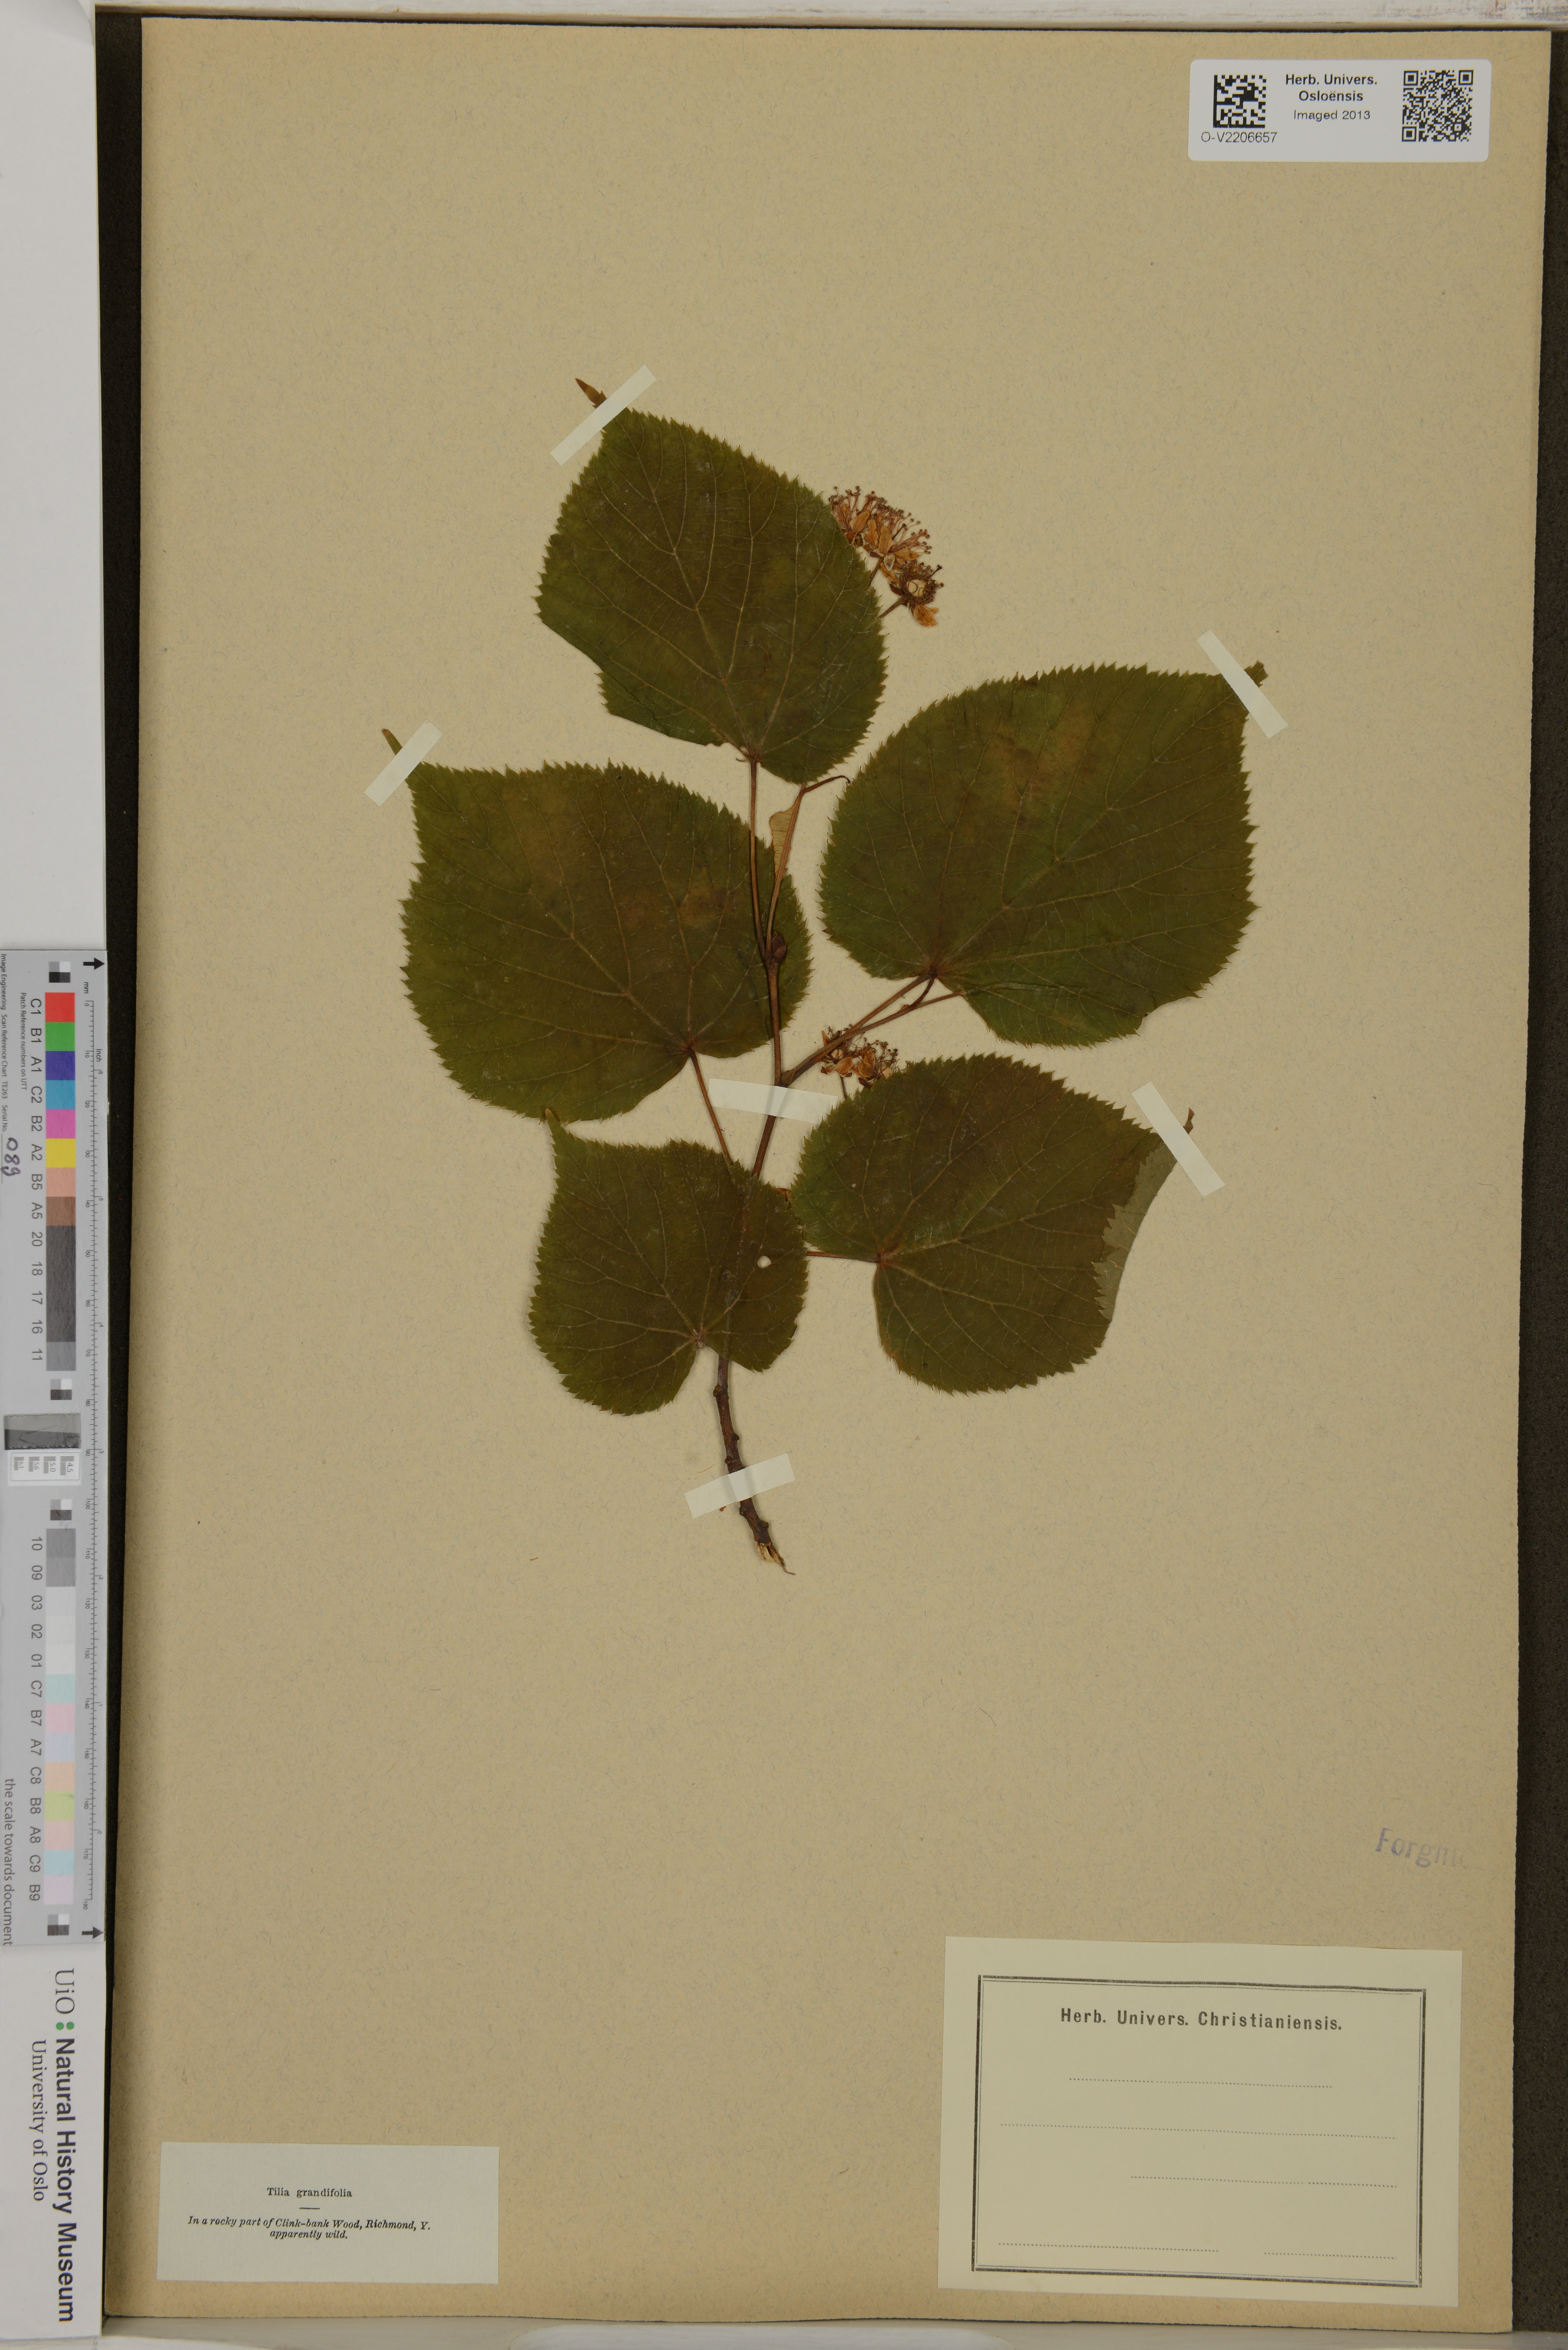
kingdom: Plantae
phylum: Tracheophyta
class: Magnoliopsida
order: Malvales
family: Malvaceae
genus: Tilia
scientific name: Tilia platyphyllos
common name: Large-leaved lime
